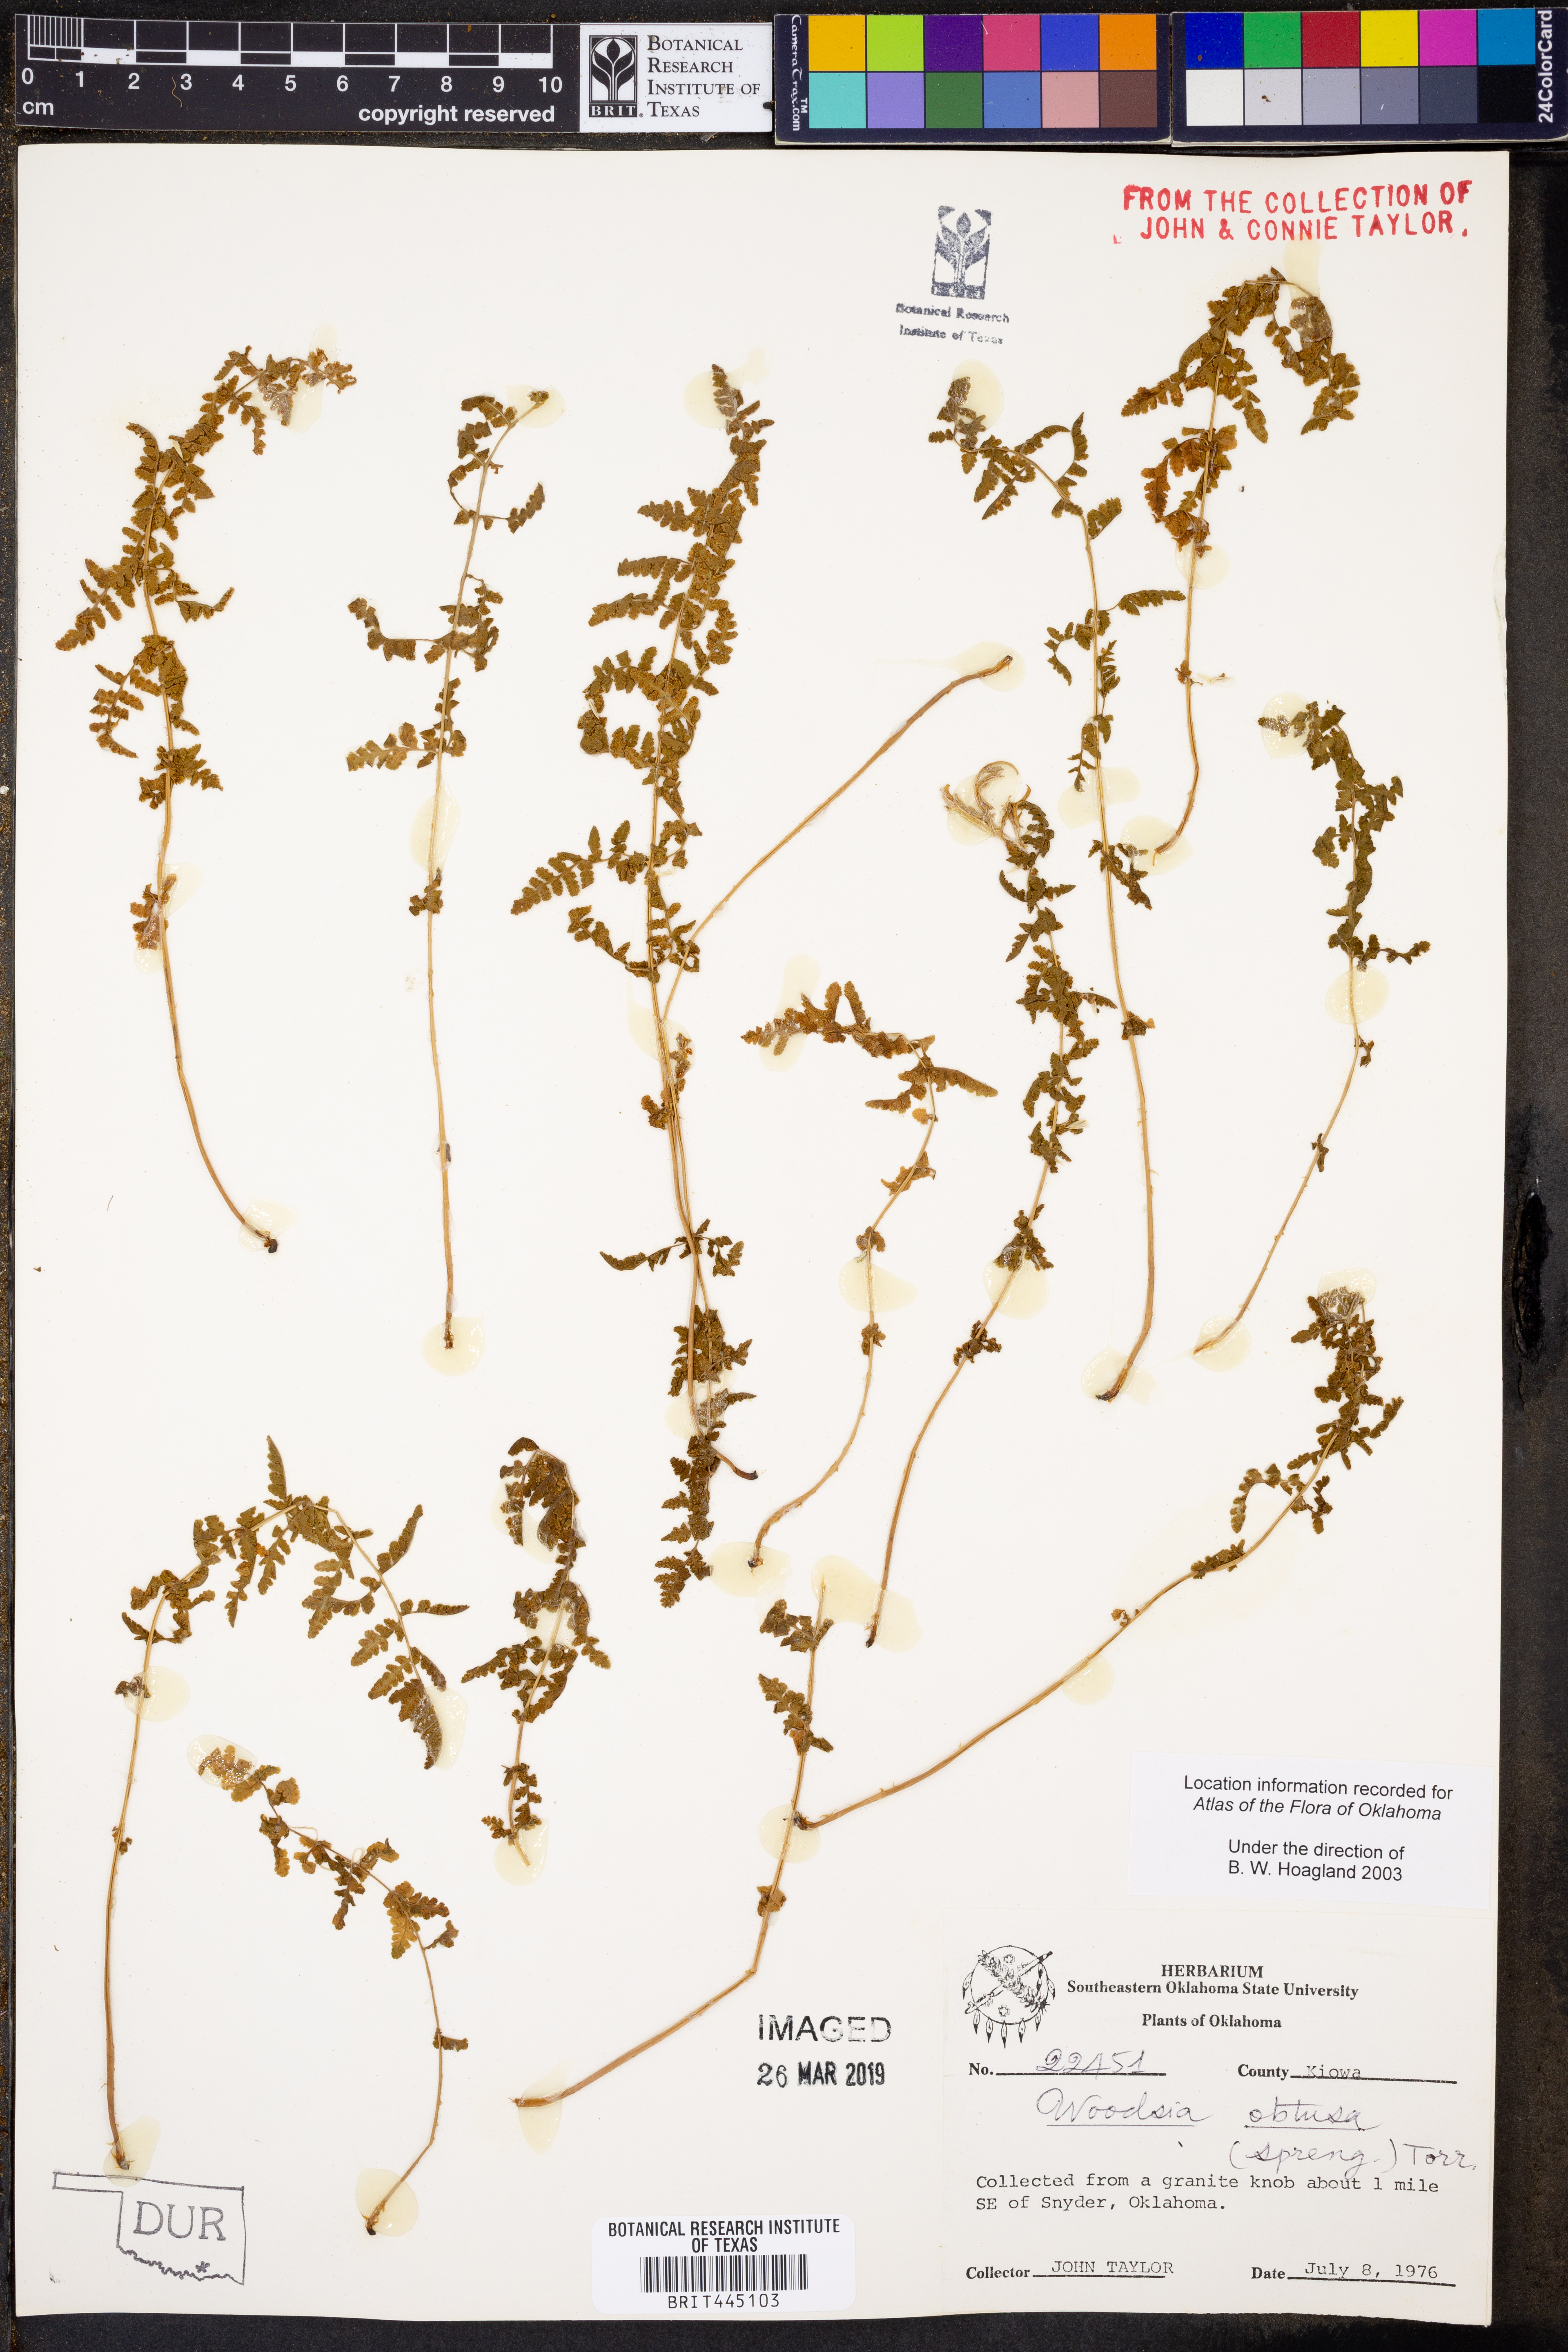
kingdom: Plantae
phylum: Tracheophyta
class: Polypodiopsida
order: Polypodiales
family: Woodsiaceae
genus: Physematium
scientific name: Physematium obtusum
